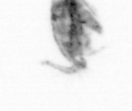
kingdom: Animalia
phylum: Arthropoda
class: Copepoda
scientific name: Copepoda
